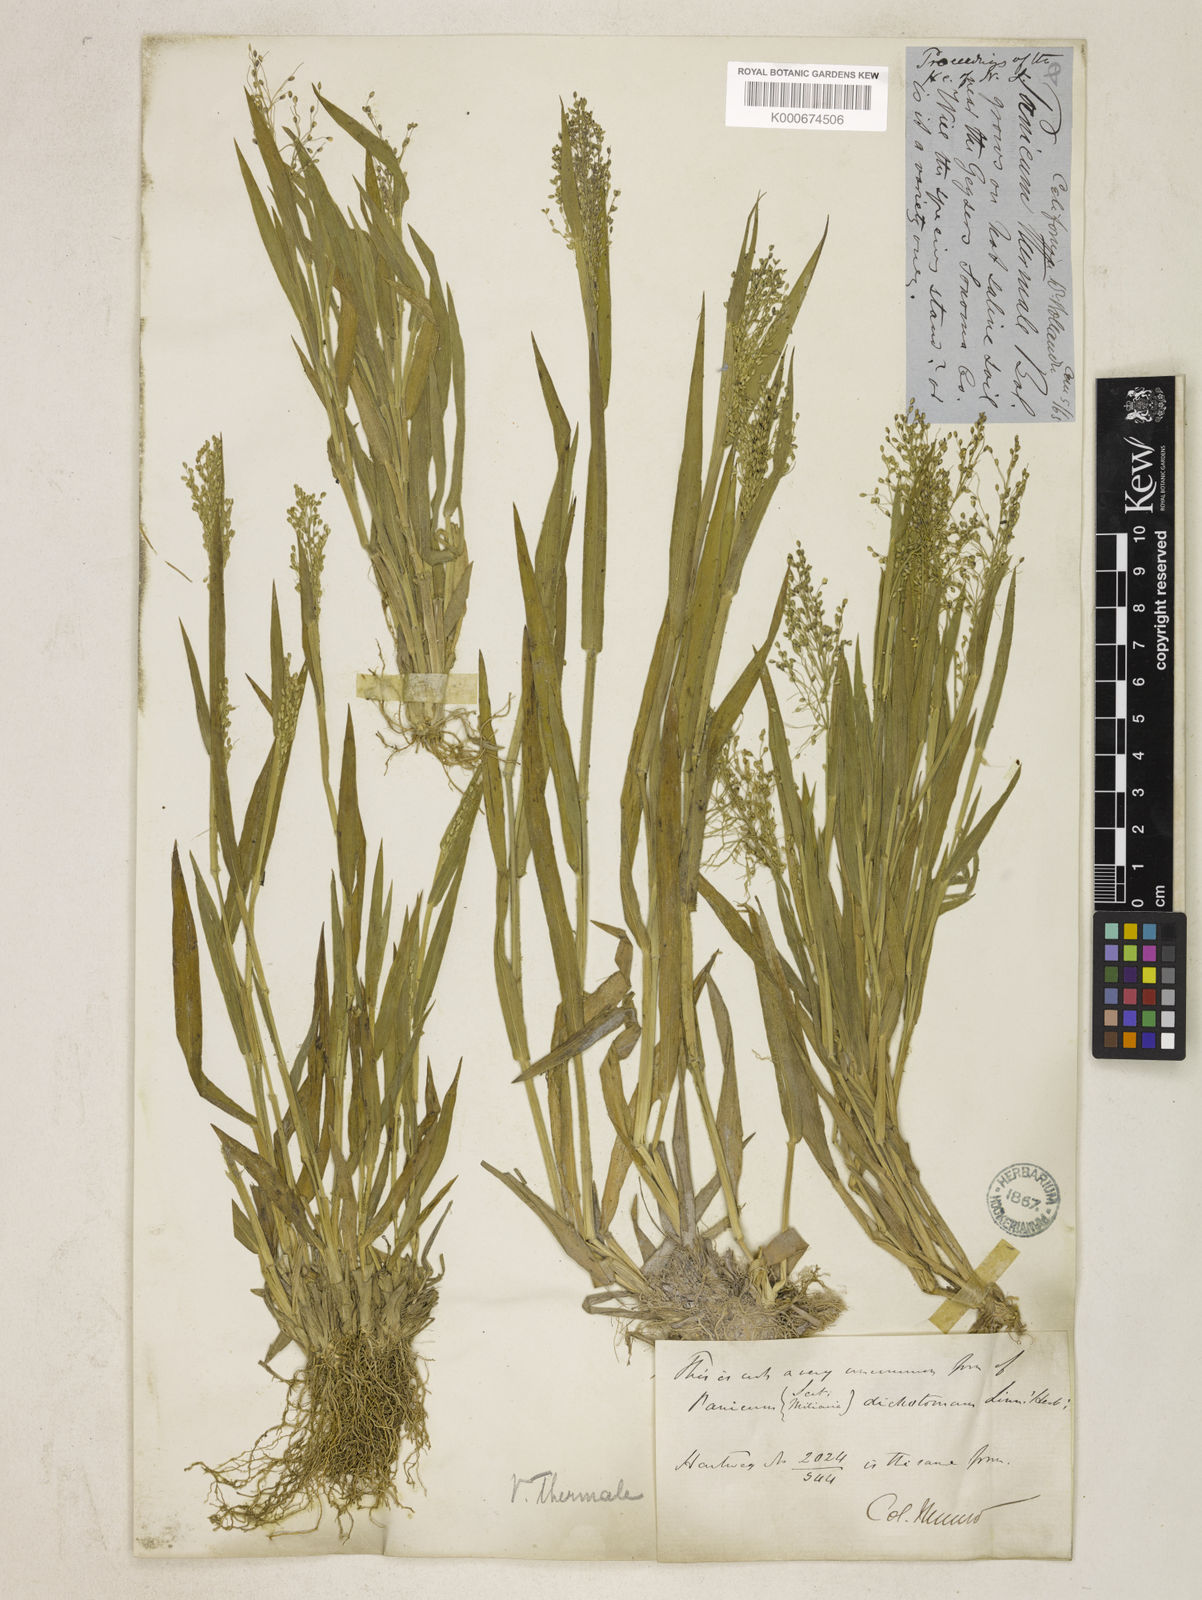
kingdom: Plantae
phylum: Tracheophyta
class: Liliopsida
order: Poales
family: Poaceae
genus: Dichanthelium
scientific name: Dichanthelium thermale
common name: Geyser panicgrass
